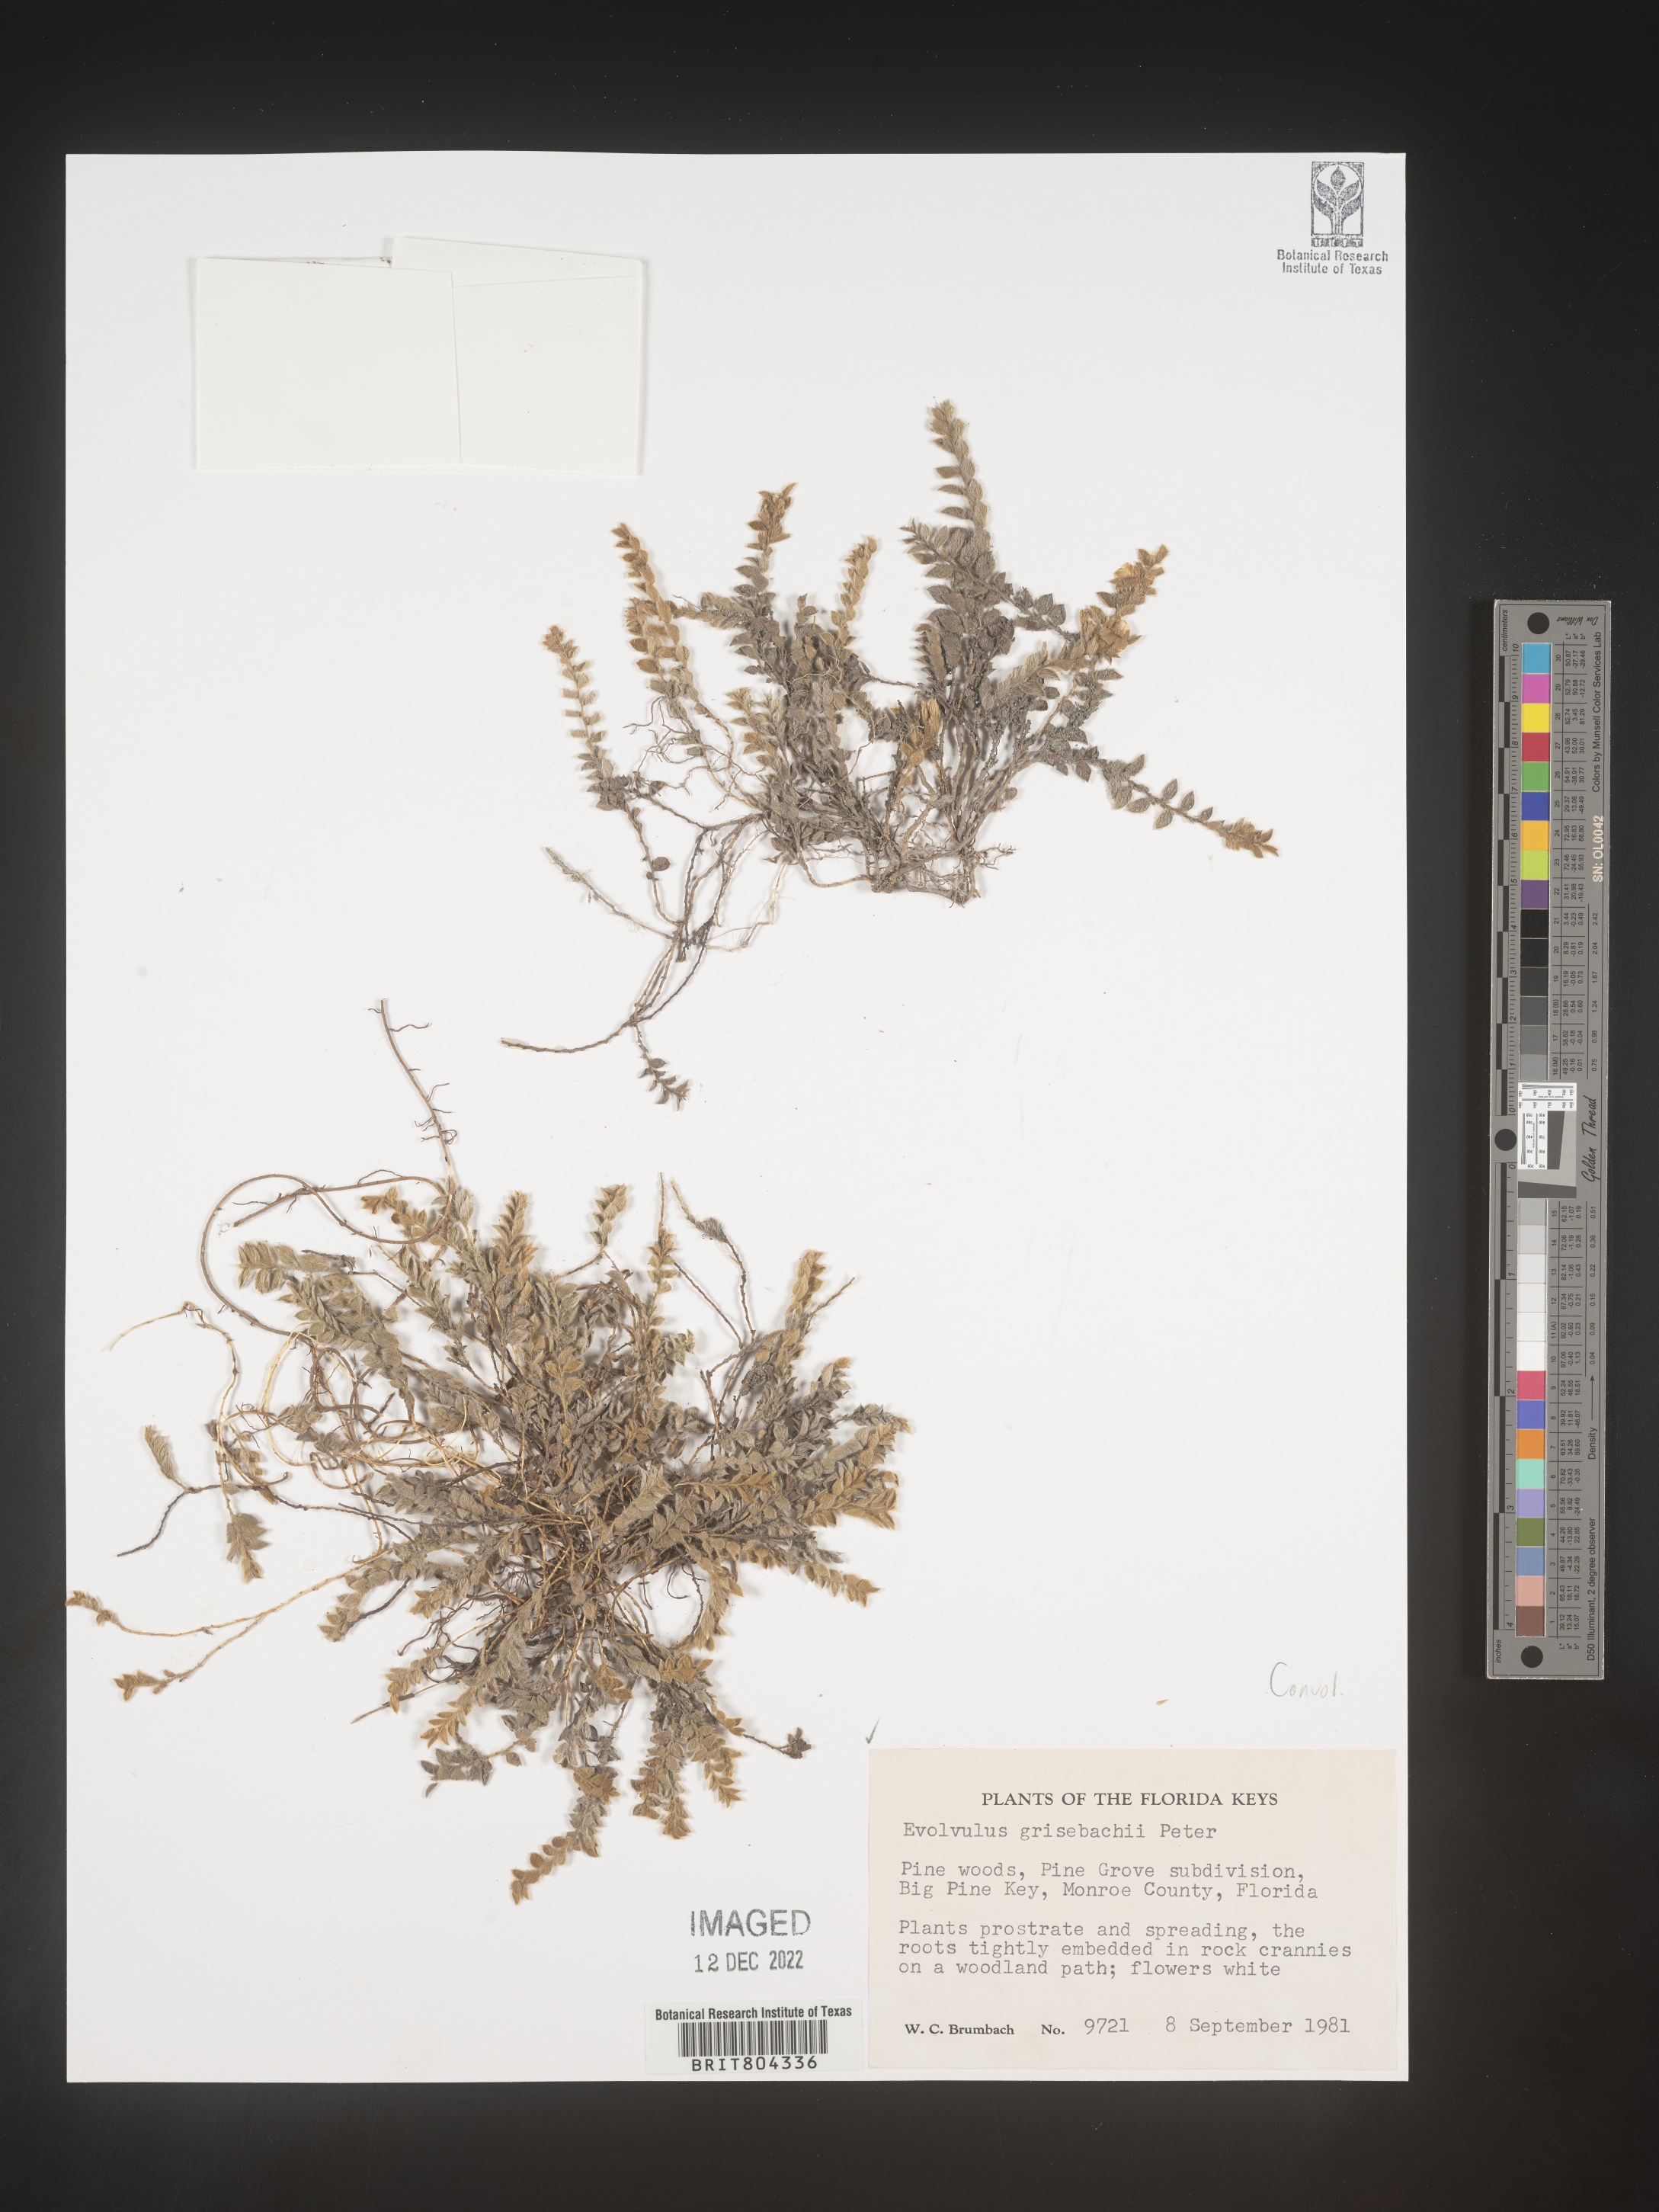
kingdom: Plantae
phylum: Tracheophyta
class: Magnoliopsida
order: Solanales
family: Convolvulaceae
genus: Evolvulus
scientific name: Evolvulus grisebachii
